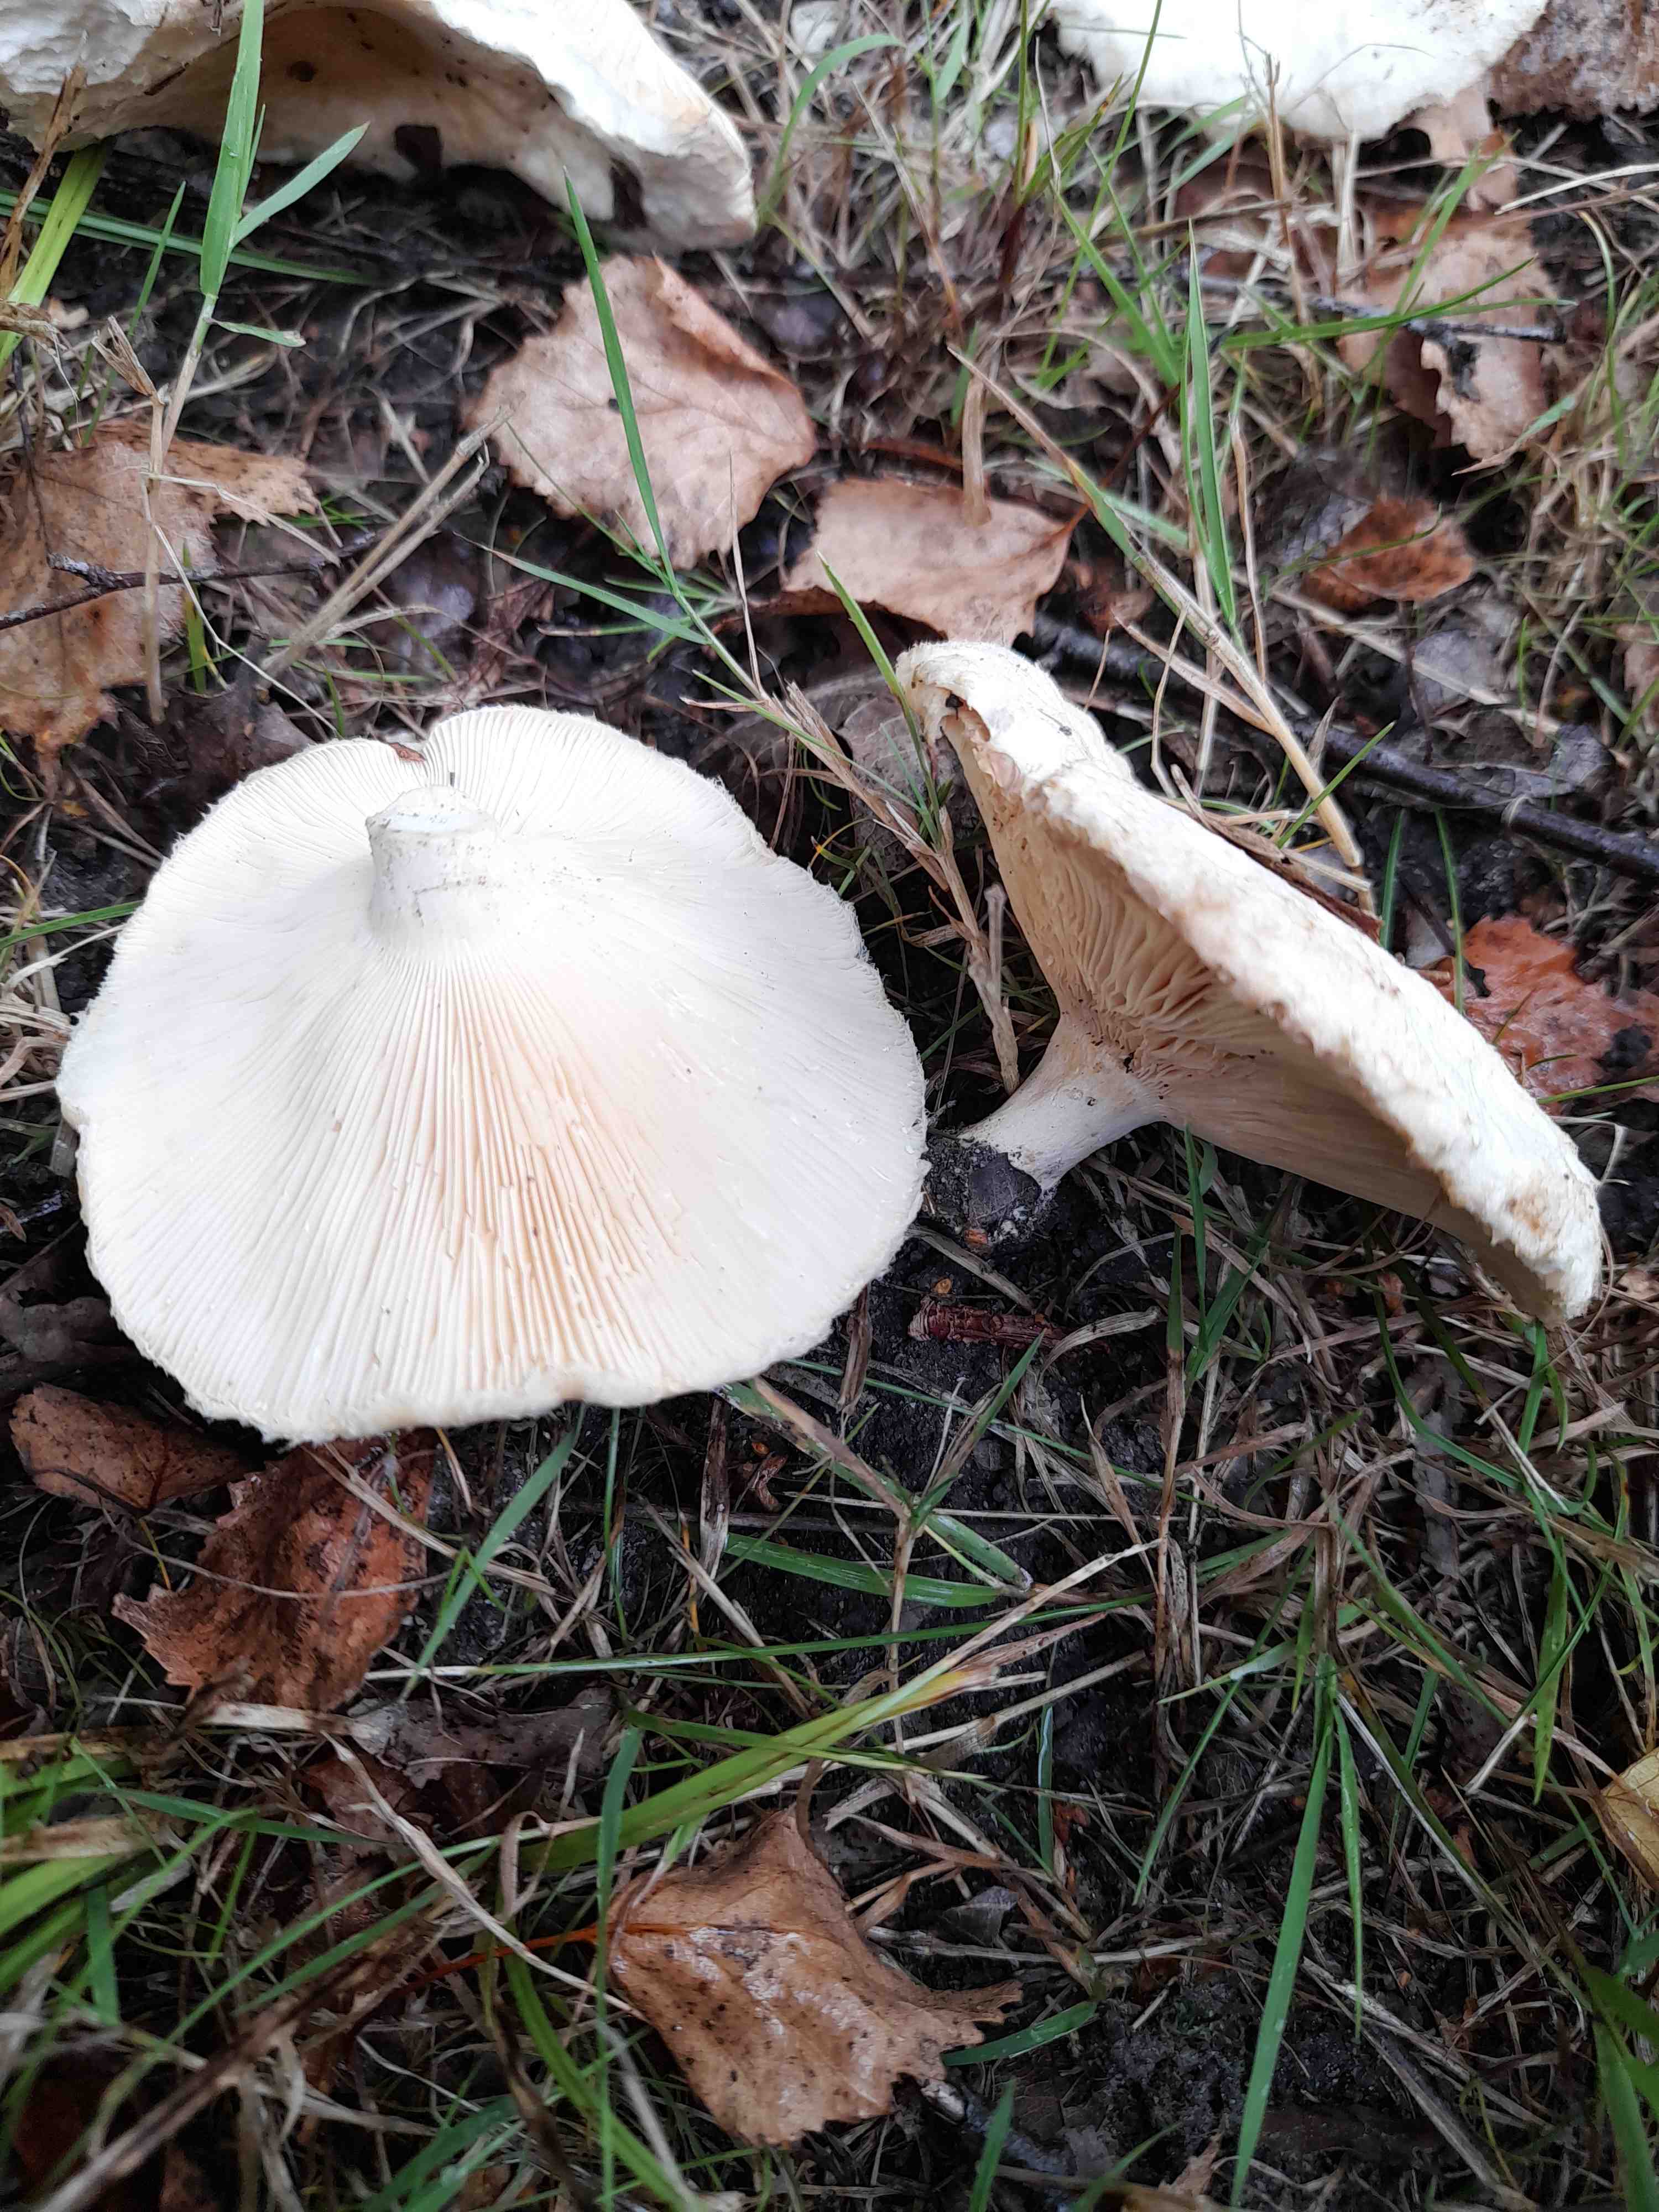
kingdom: Fungi
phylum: Basidiomycota
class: Agaricomycetes
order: Russulales
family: Russulaceae
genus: Lactarius
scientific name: Lactarius pubescens
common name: dunet mælkehat
